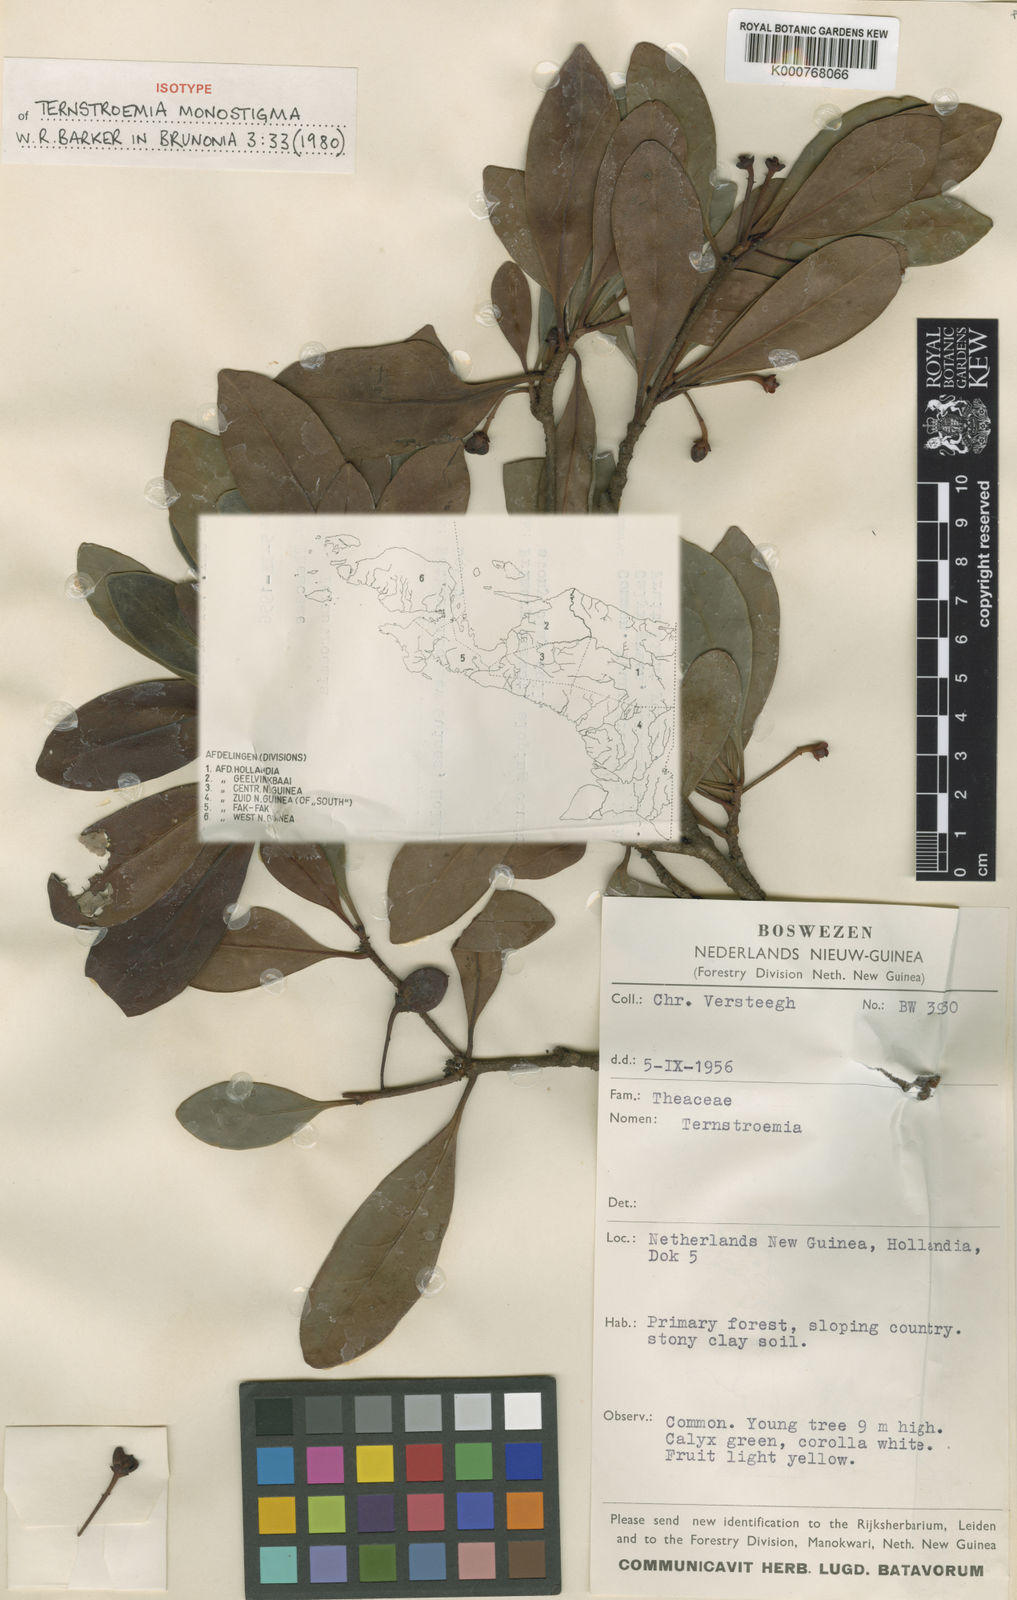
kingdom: Plantae
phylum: Tracheophyta
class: Magnoliopsida
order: Ericales
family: Pentaphylacaceae
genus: Ternstroemia
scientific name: Ternstroemia monostigma
